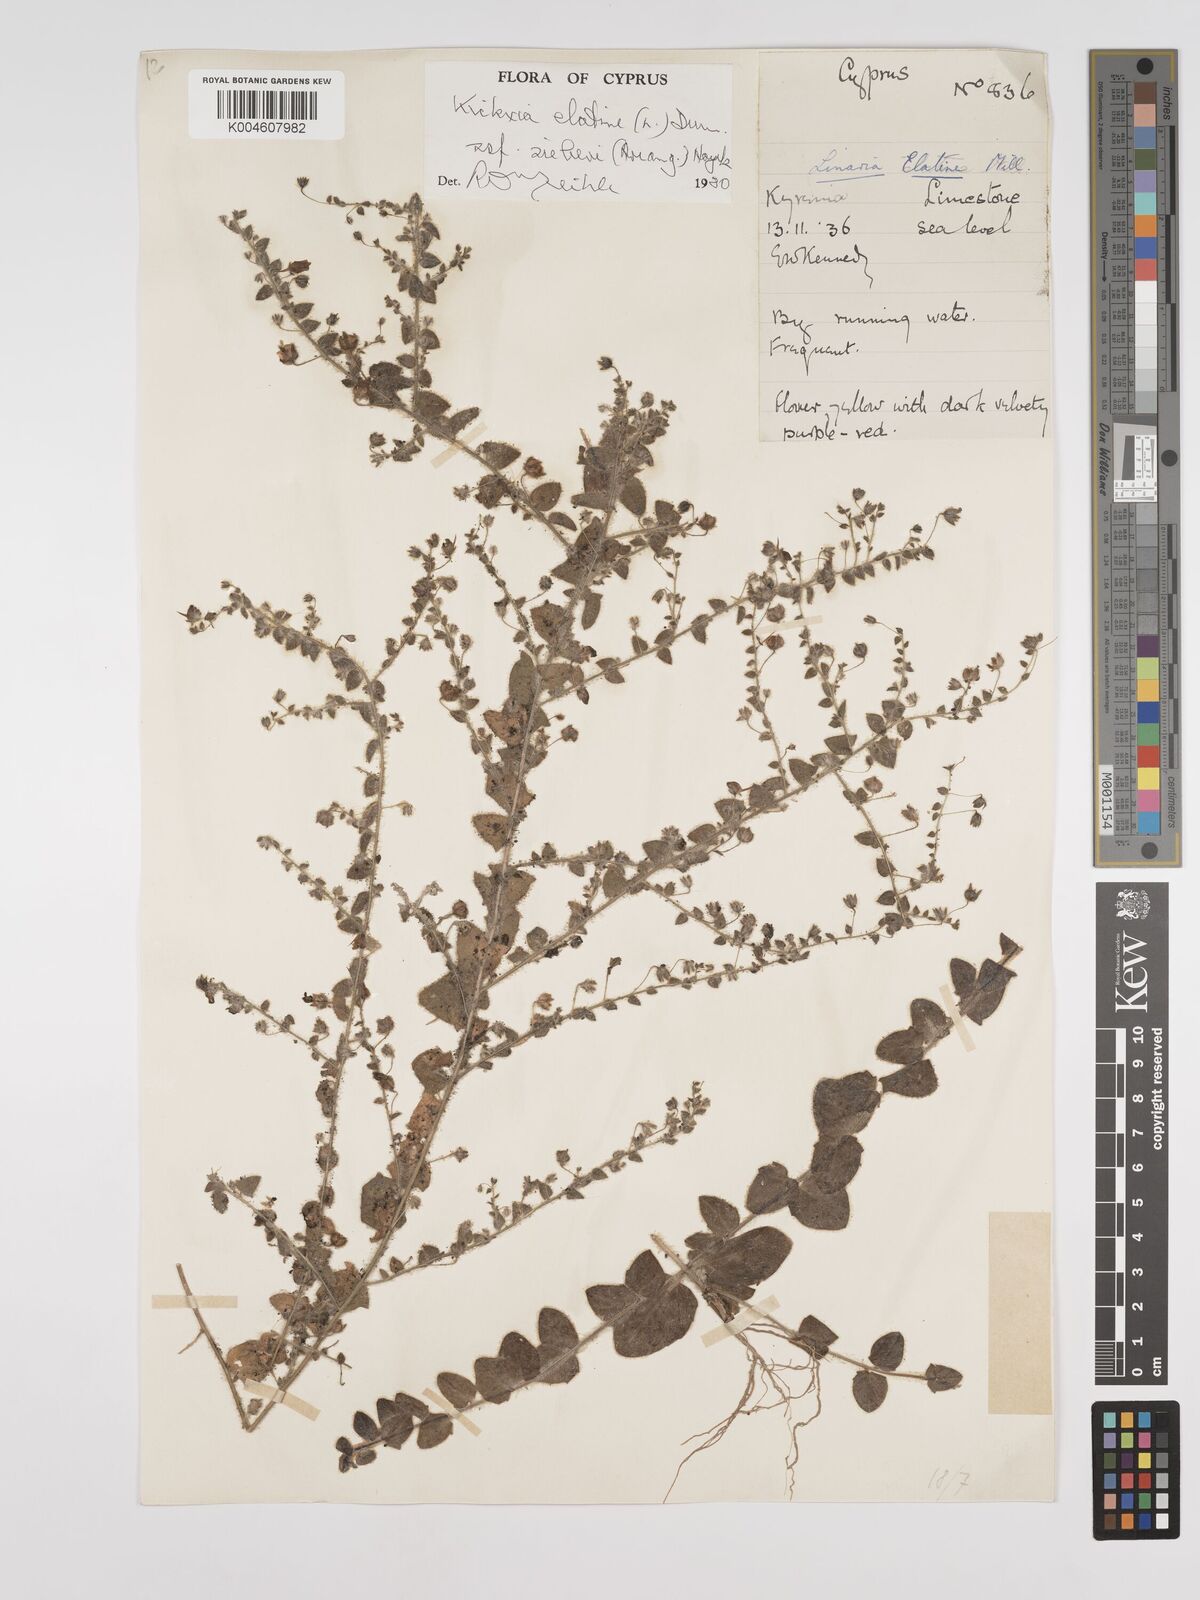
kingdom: Plantae
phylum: Tracheophyta
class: Magnoliopsida
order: Lamiales
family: Plantaginaceae
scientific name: Plantaginaceae
